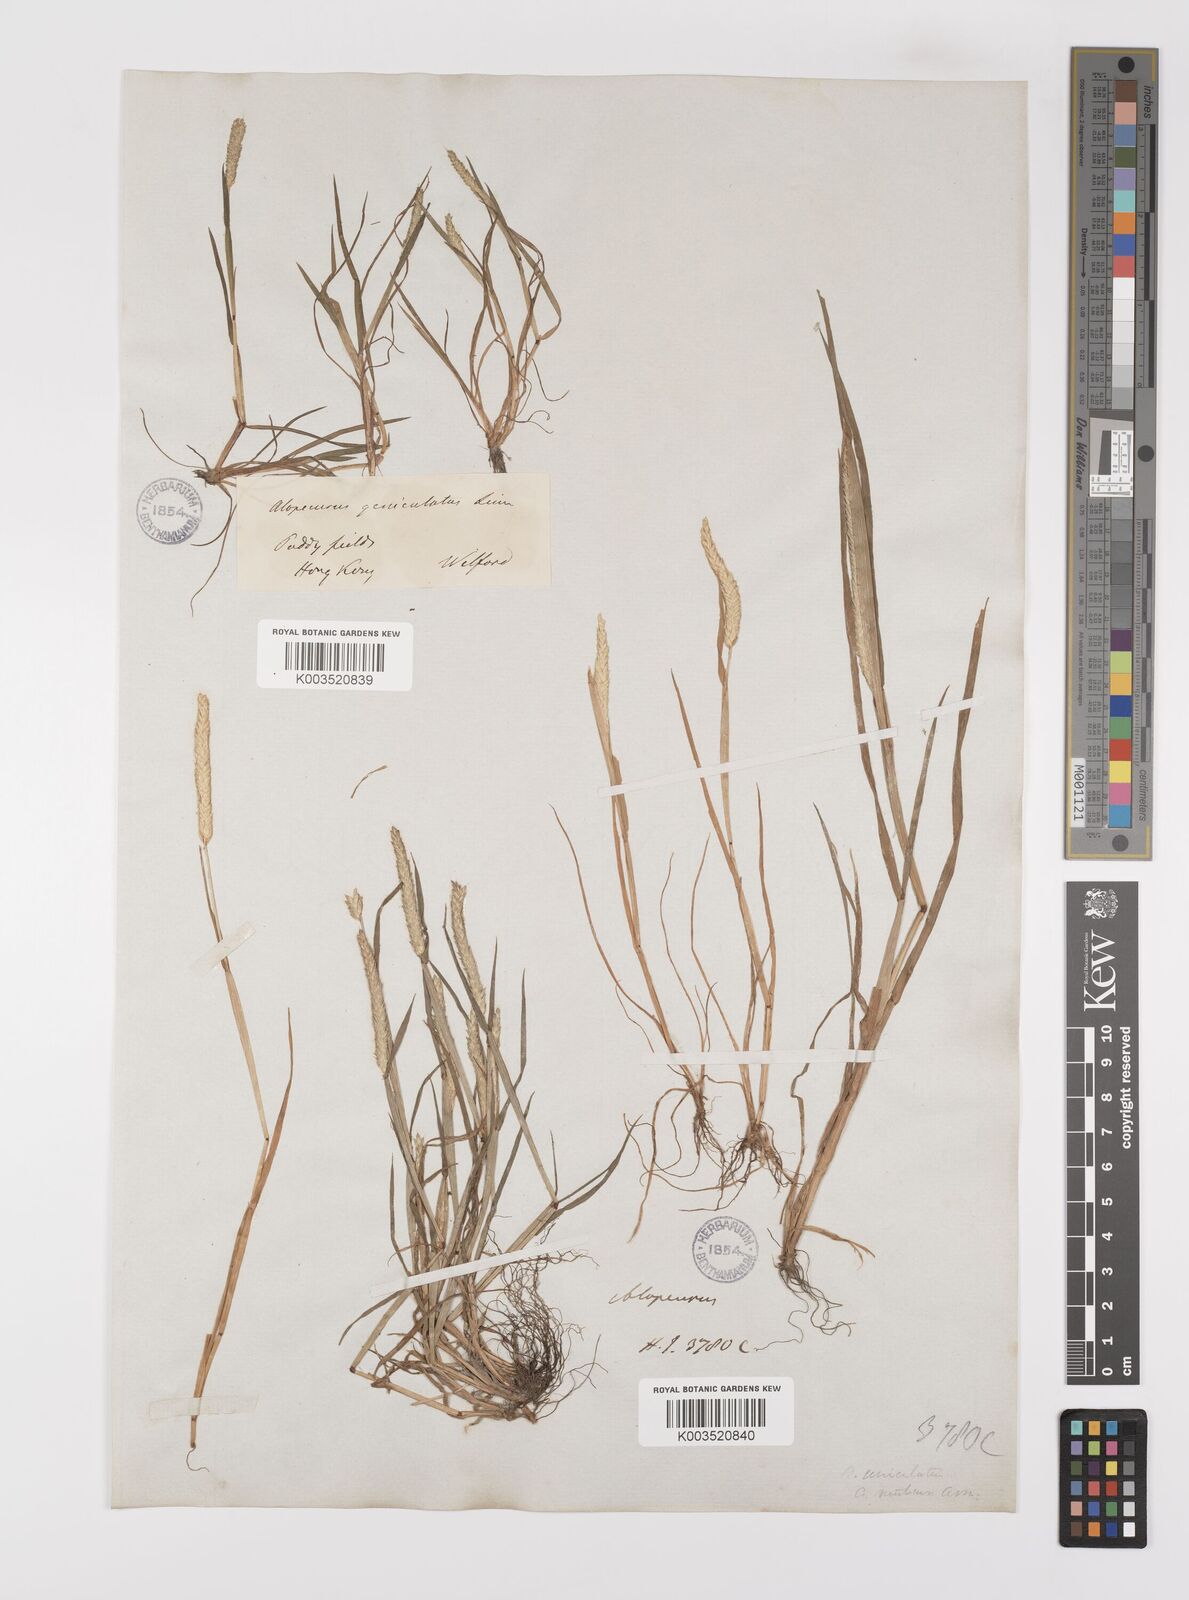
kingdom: Plantae
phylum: Tracheophyta
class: Liliopsida
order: Poales
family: Poaceae
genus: Alopecurus
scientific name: Alopecurus aequalis
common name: Orange foxtail
